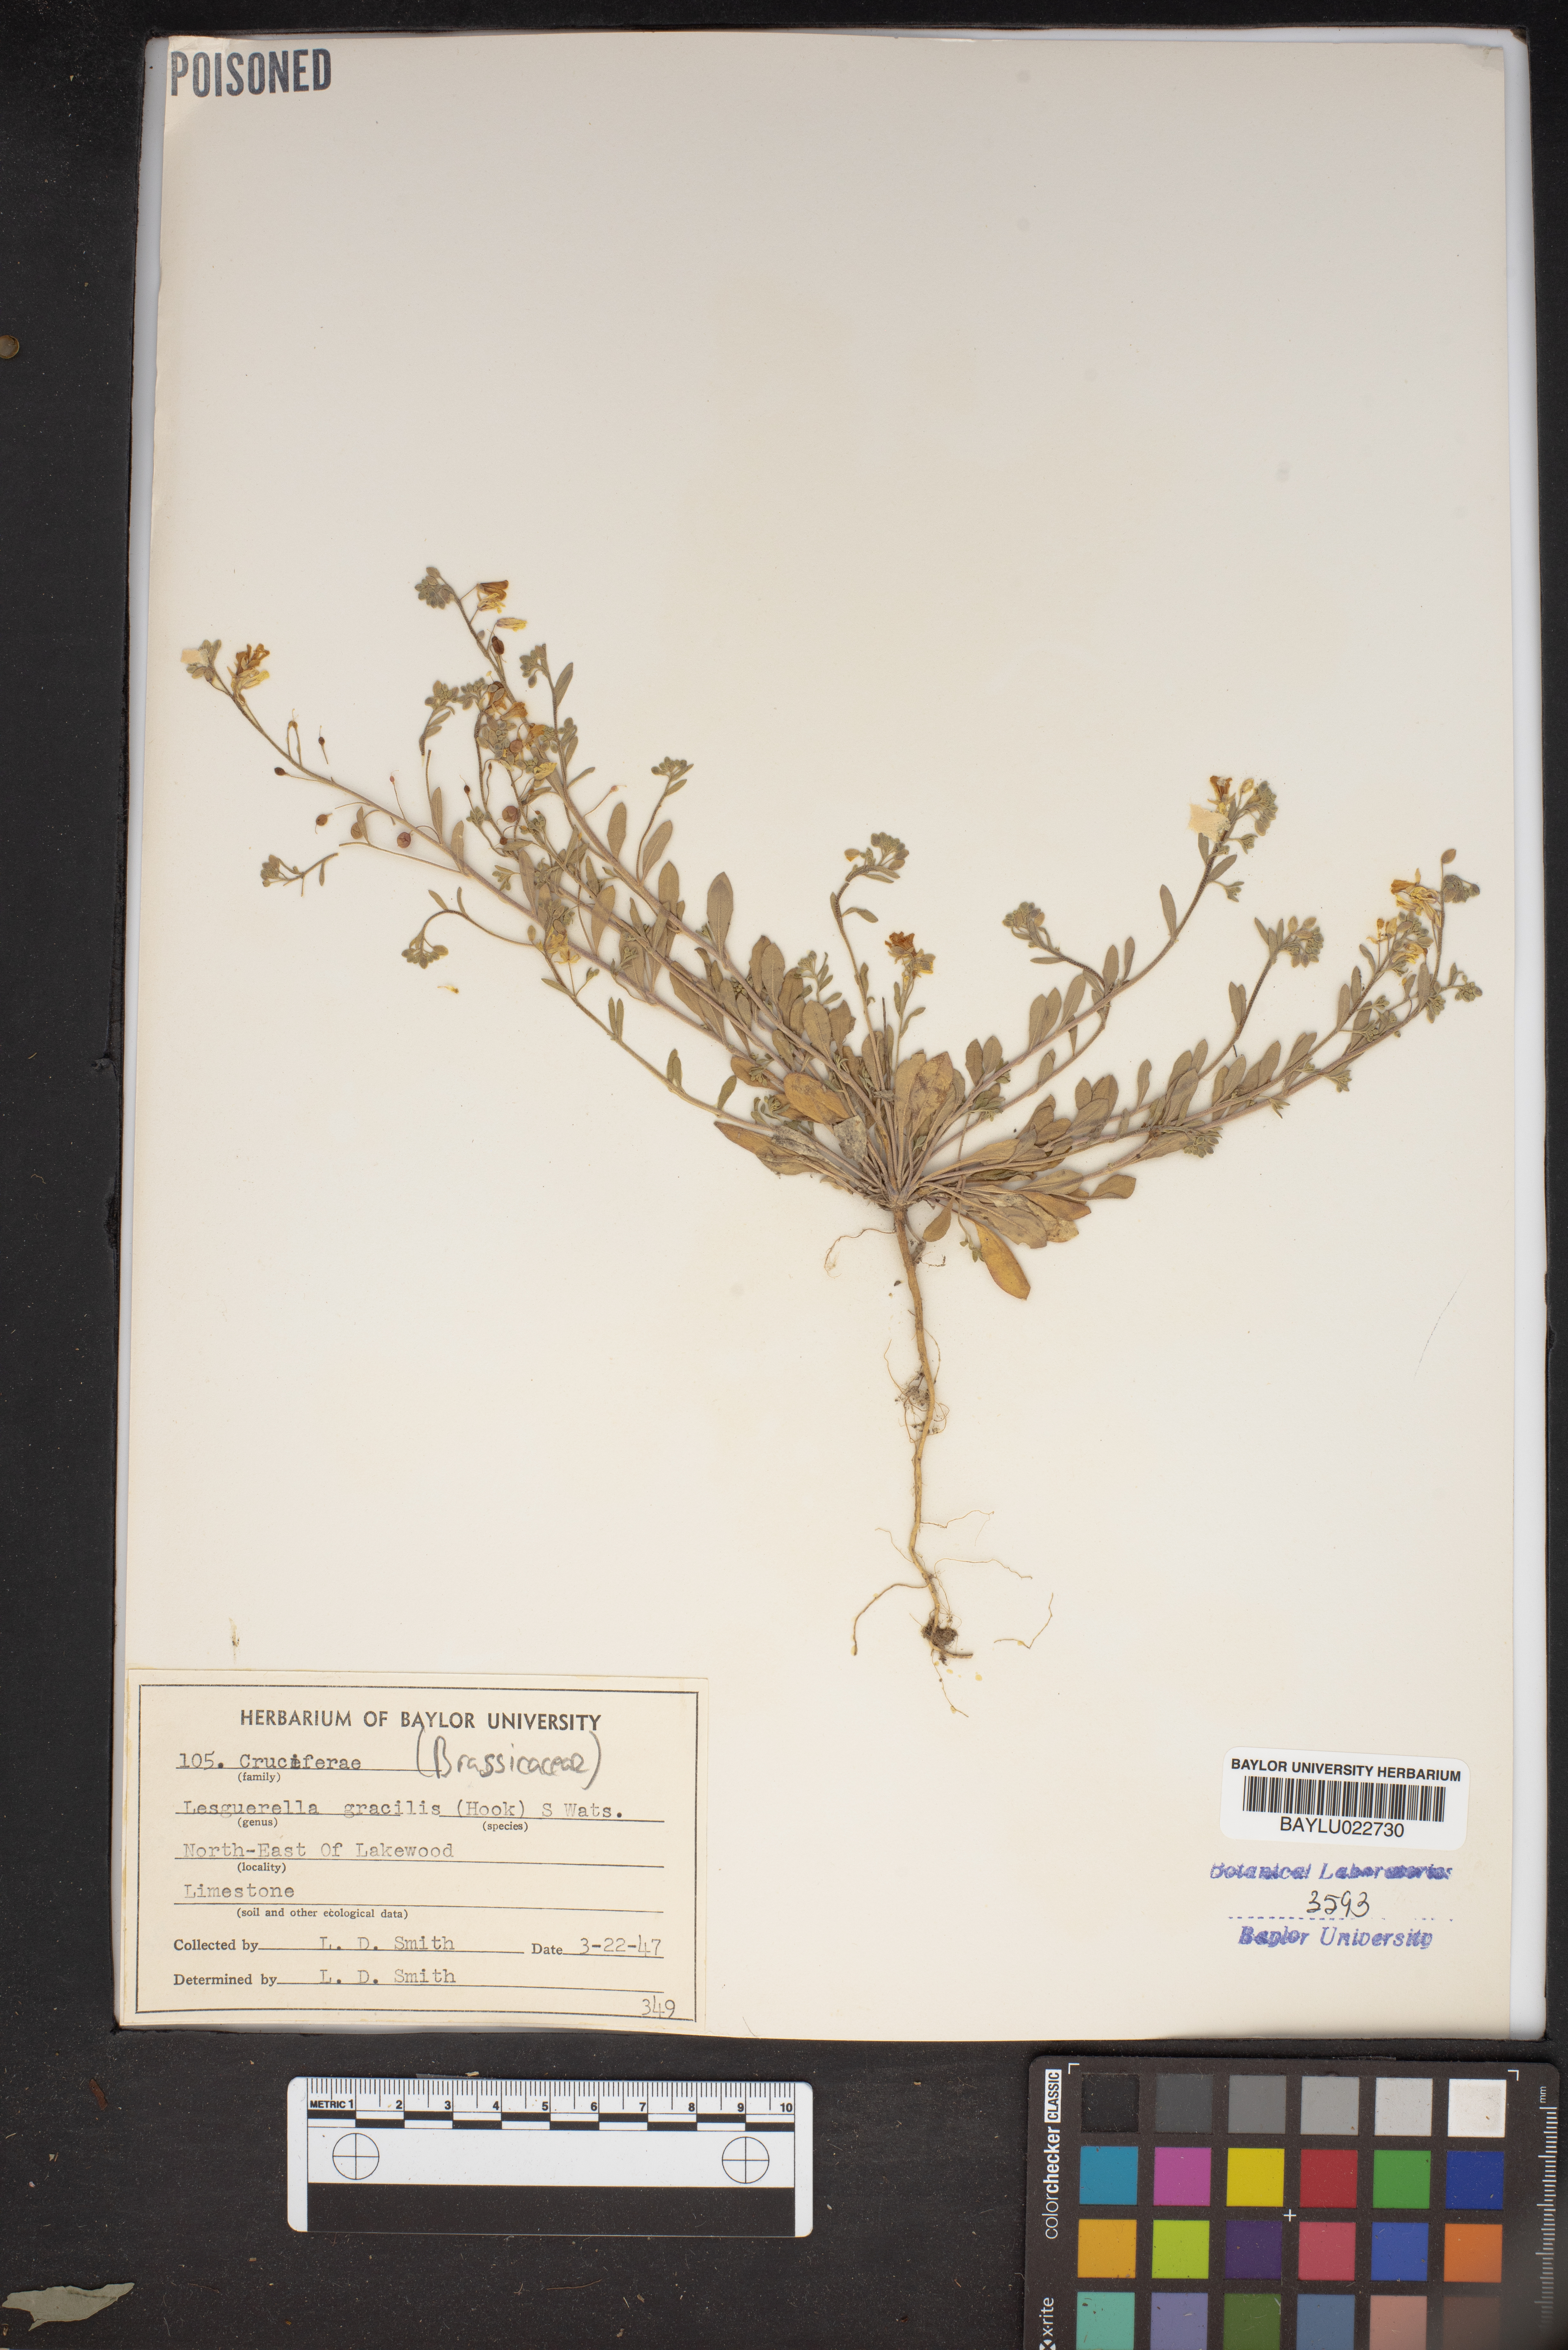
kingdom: Plantae
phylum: Tracheophyta
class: Magnoliopsida
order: Brassicales
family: Brassicaceae
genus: Physaria
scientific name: Physaria gracilis
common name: Spreading bladderpod
